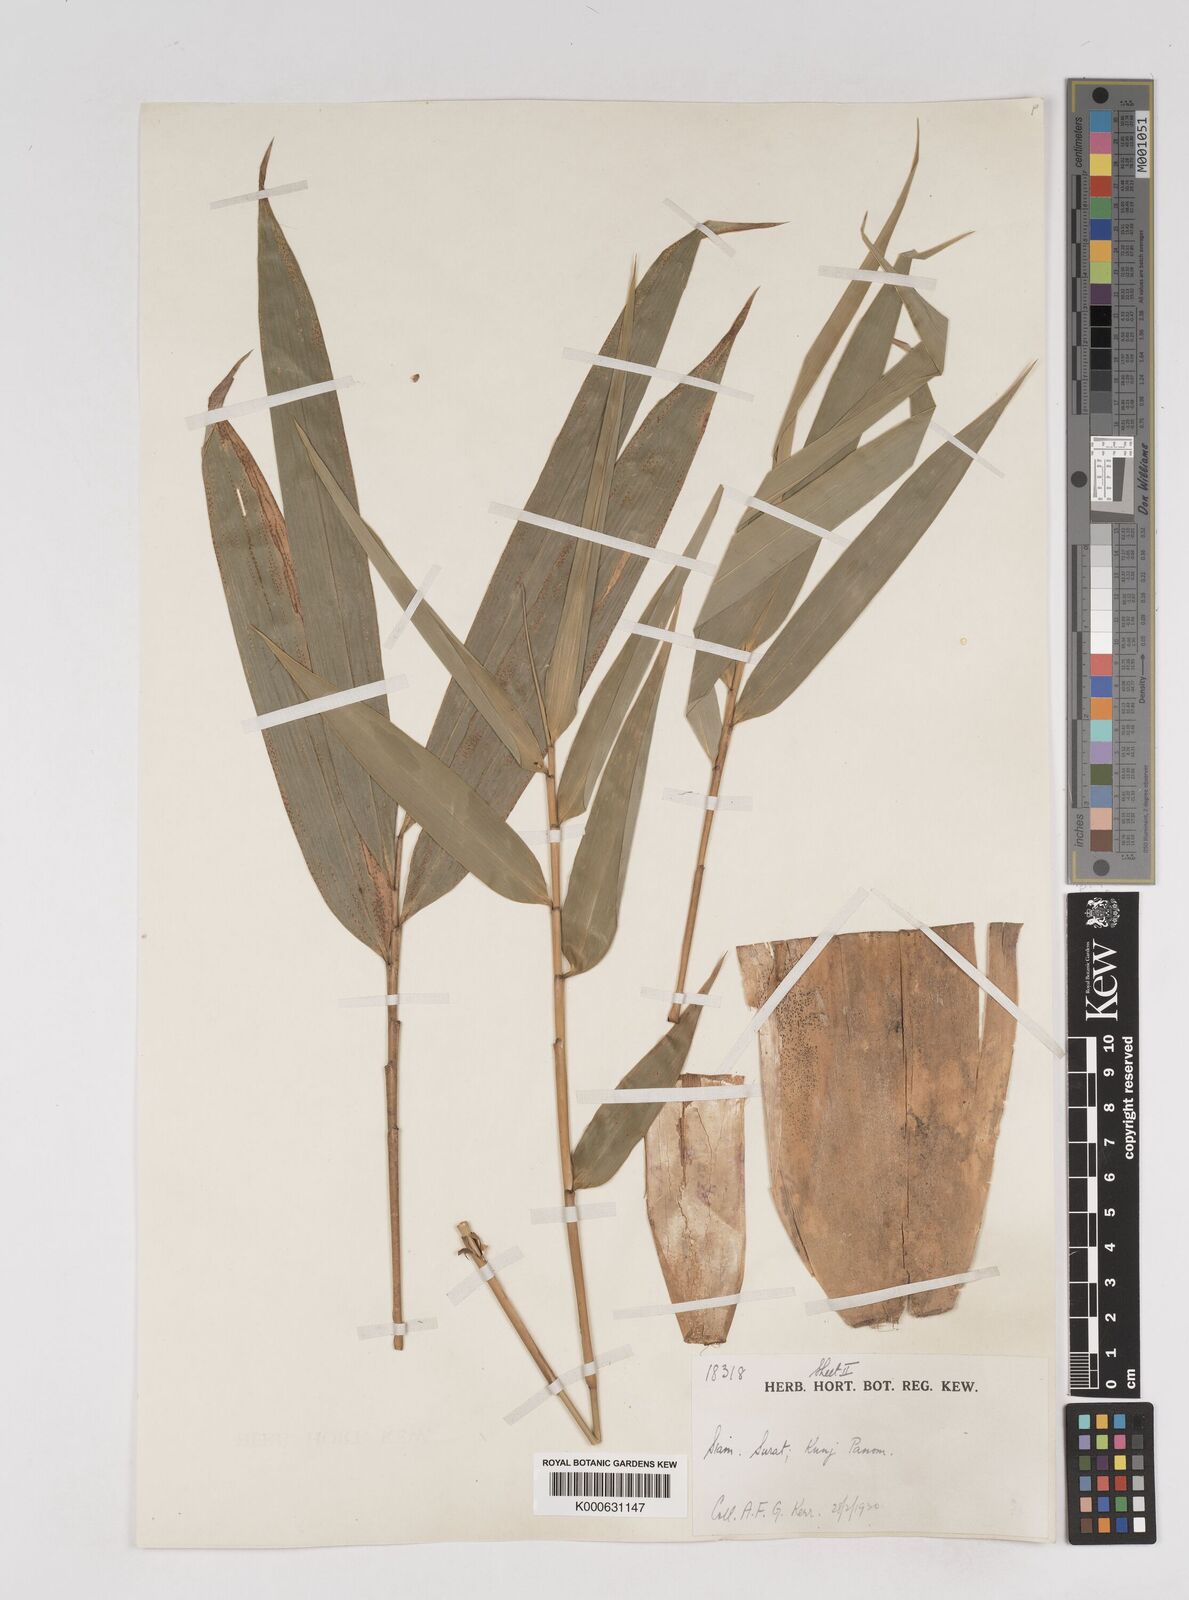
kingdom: Plantae
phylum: Tracheophyta
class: Liliopsida
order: Poales
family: Poaceae
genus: Gigantochloa
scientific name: Gigantochloa
